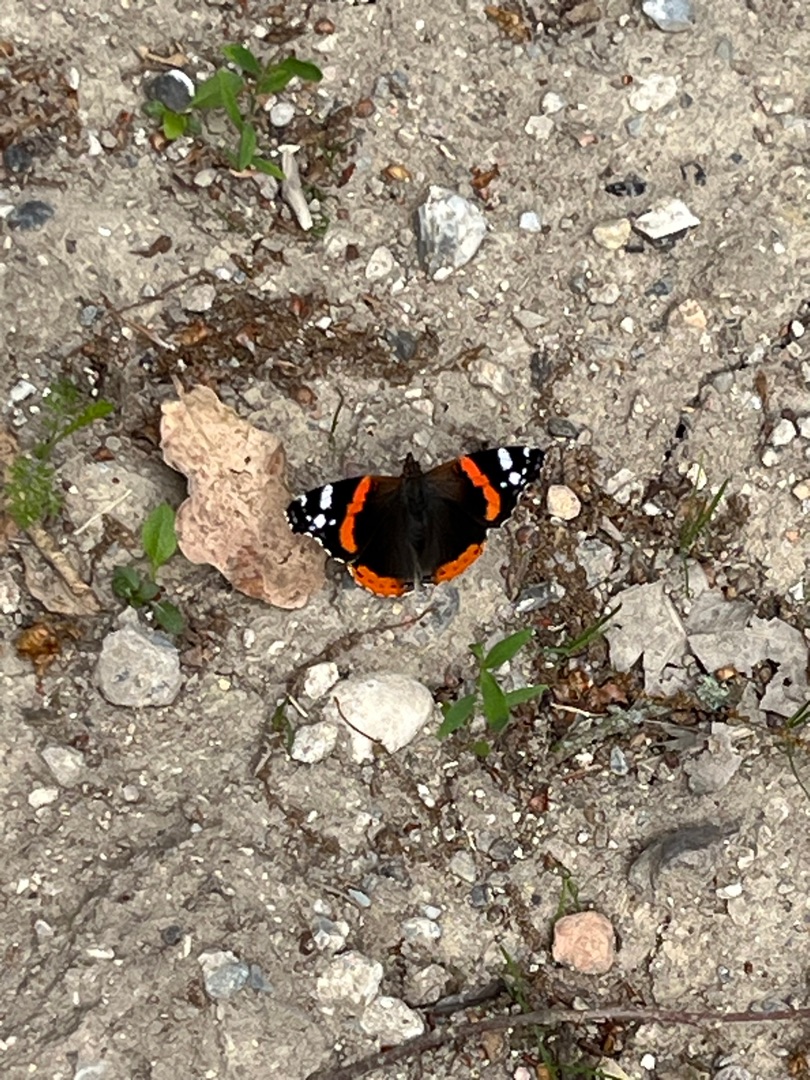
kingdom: Animalia
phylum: Arthropoda
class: Insecta
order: Lepidoptera
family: Nymphalidae
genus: Vanessa
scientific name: Vanessa atalanta
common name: Admiral
